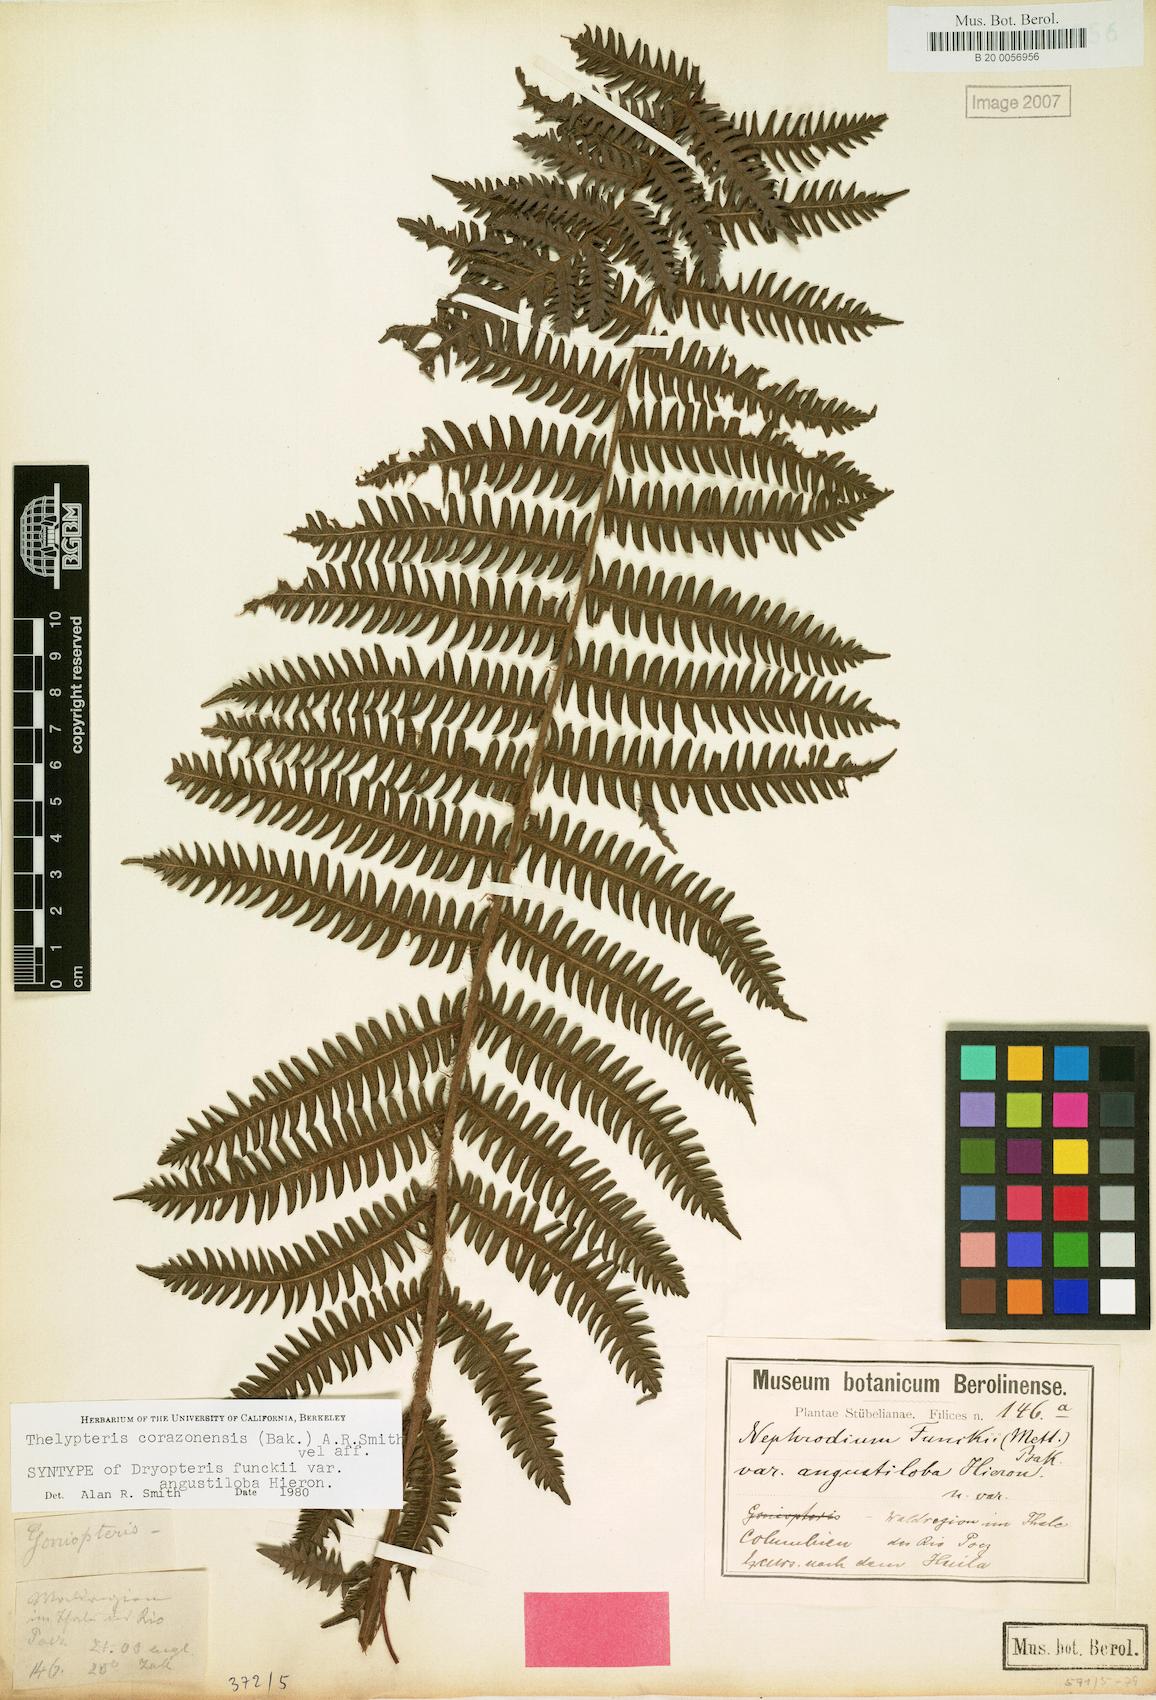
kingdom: Plantae
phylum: Tracheophyta
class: Polypodiopsida
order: Polypodiales
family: Thelypteridaceae
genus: Amauropelta
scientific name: Amauropelta corazonensis
